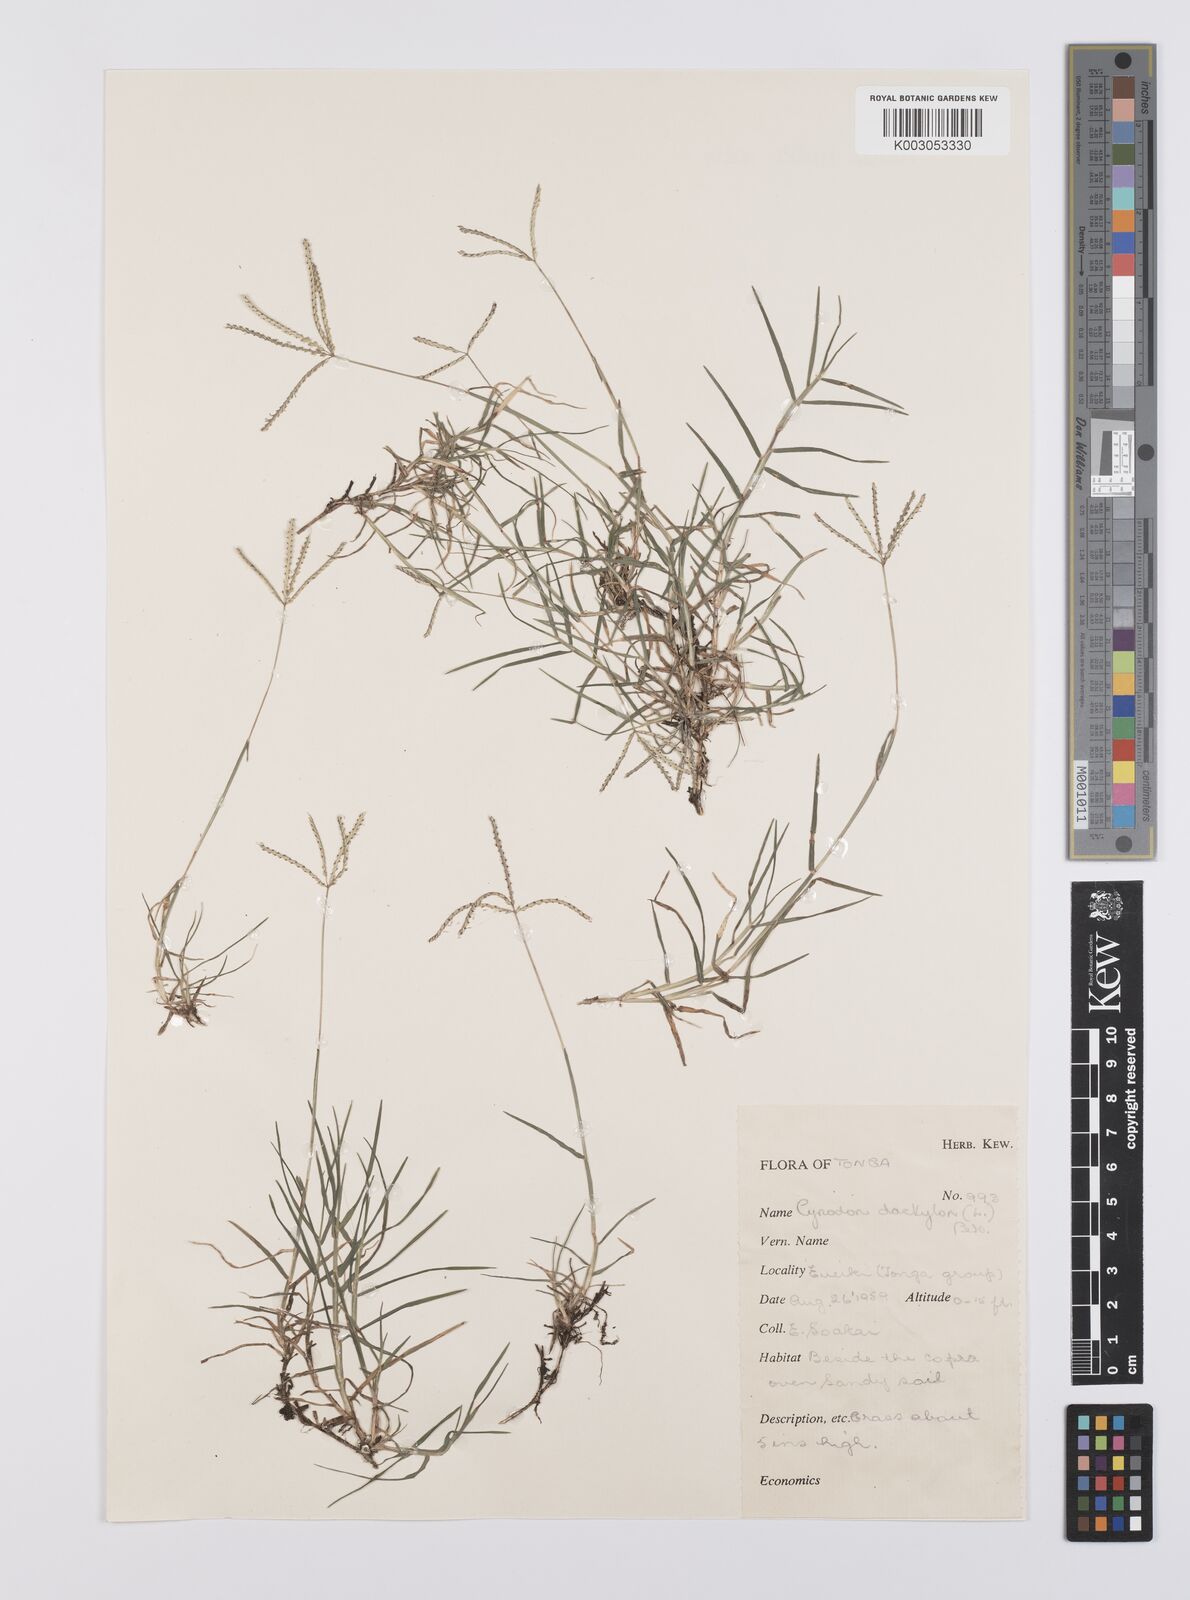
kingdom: Plantae
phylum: Tracheophyta
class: Liliopsida
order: Poales
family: Poaceae
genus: Cynodon
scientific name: Cynodon dactylon
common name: Bermuda grass
